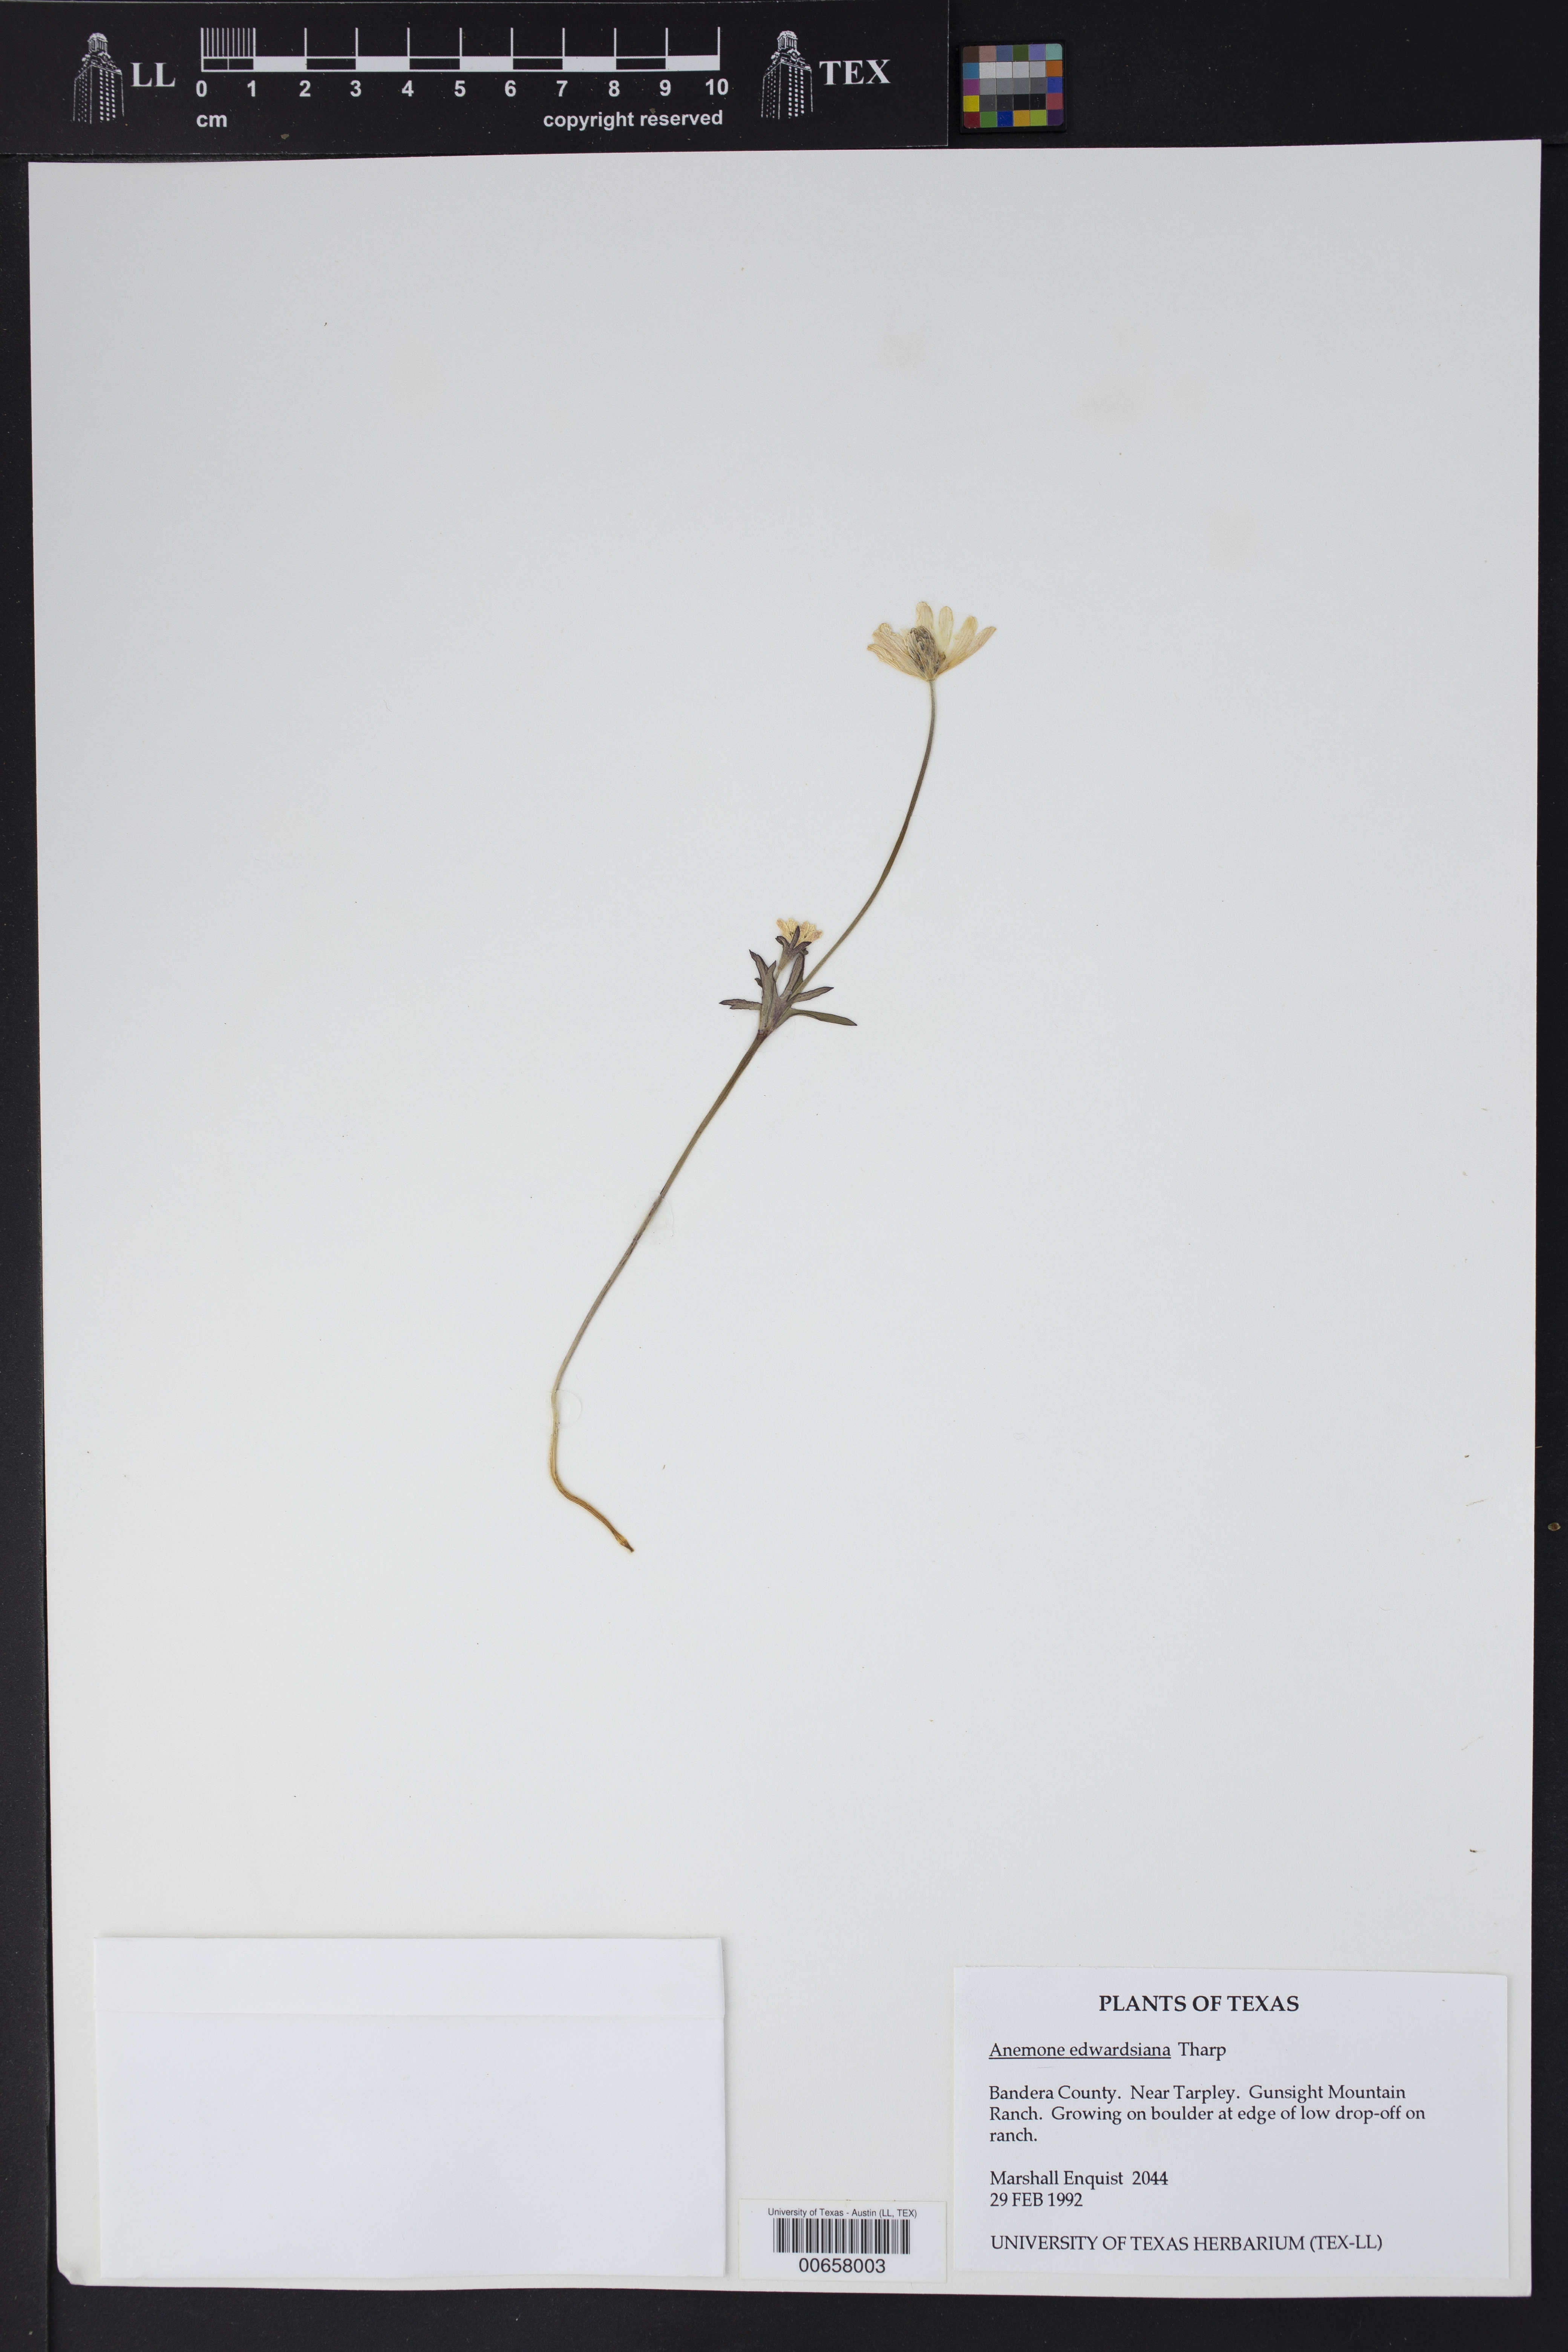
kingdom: Plantae
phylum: Tracheophyta
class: Magnoliopsida
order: Ranunculales
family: Ranunculaceae
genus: Anemone
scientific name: Anemone edwardsiana
